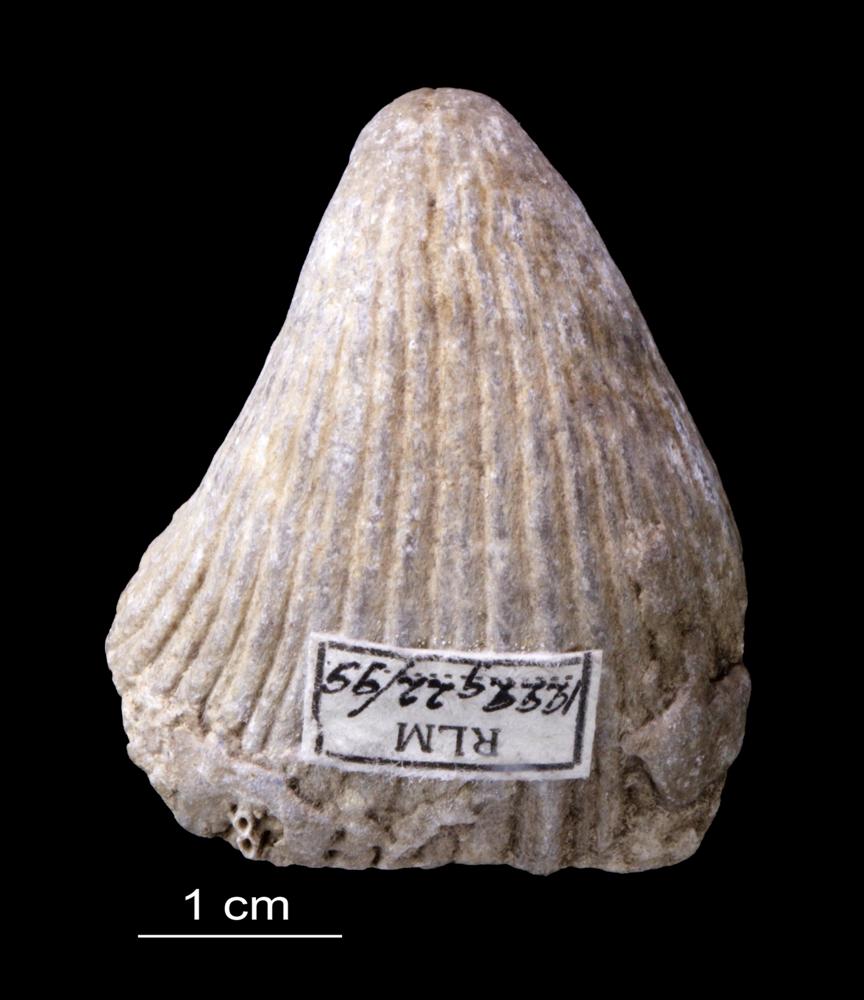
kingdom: Animalia
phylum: Brachiopoda
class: Rhynchonellata
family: Pentameridae
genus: Rhipidium
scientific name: Rhipidium Pentamerus tenuistratus
